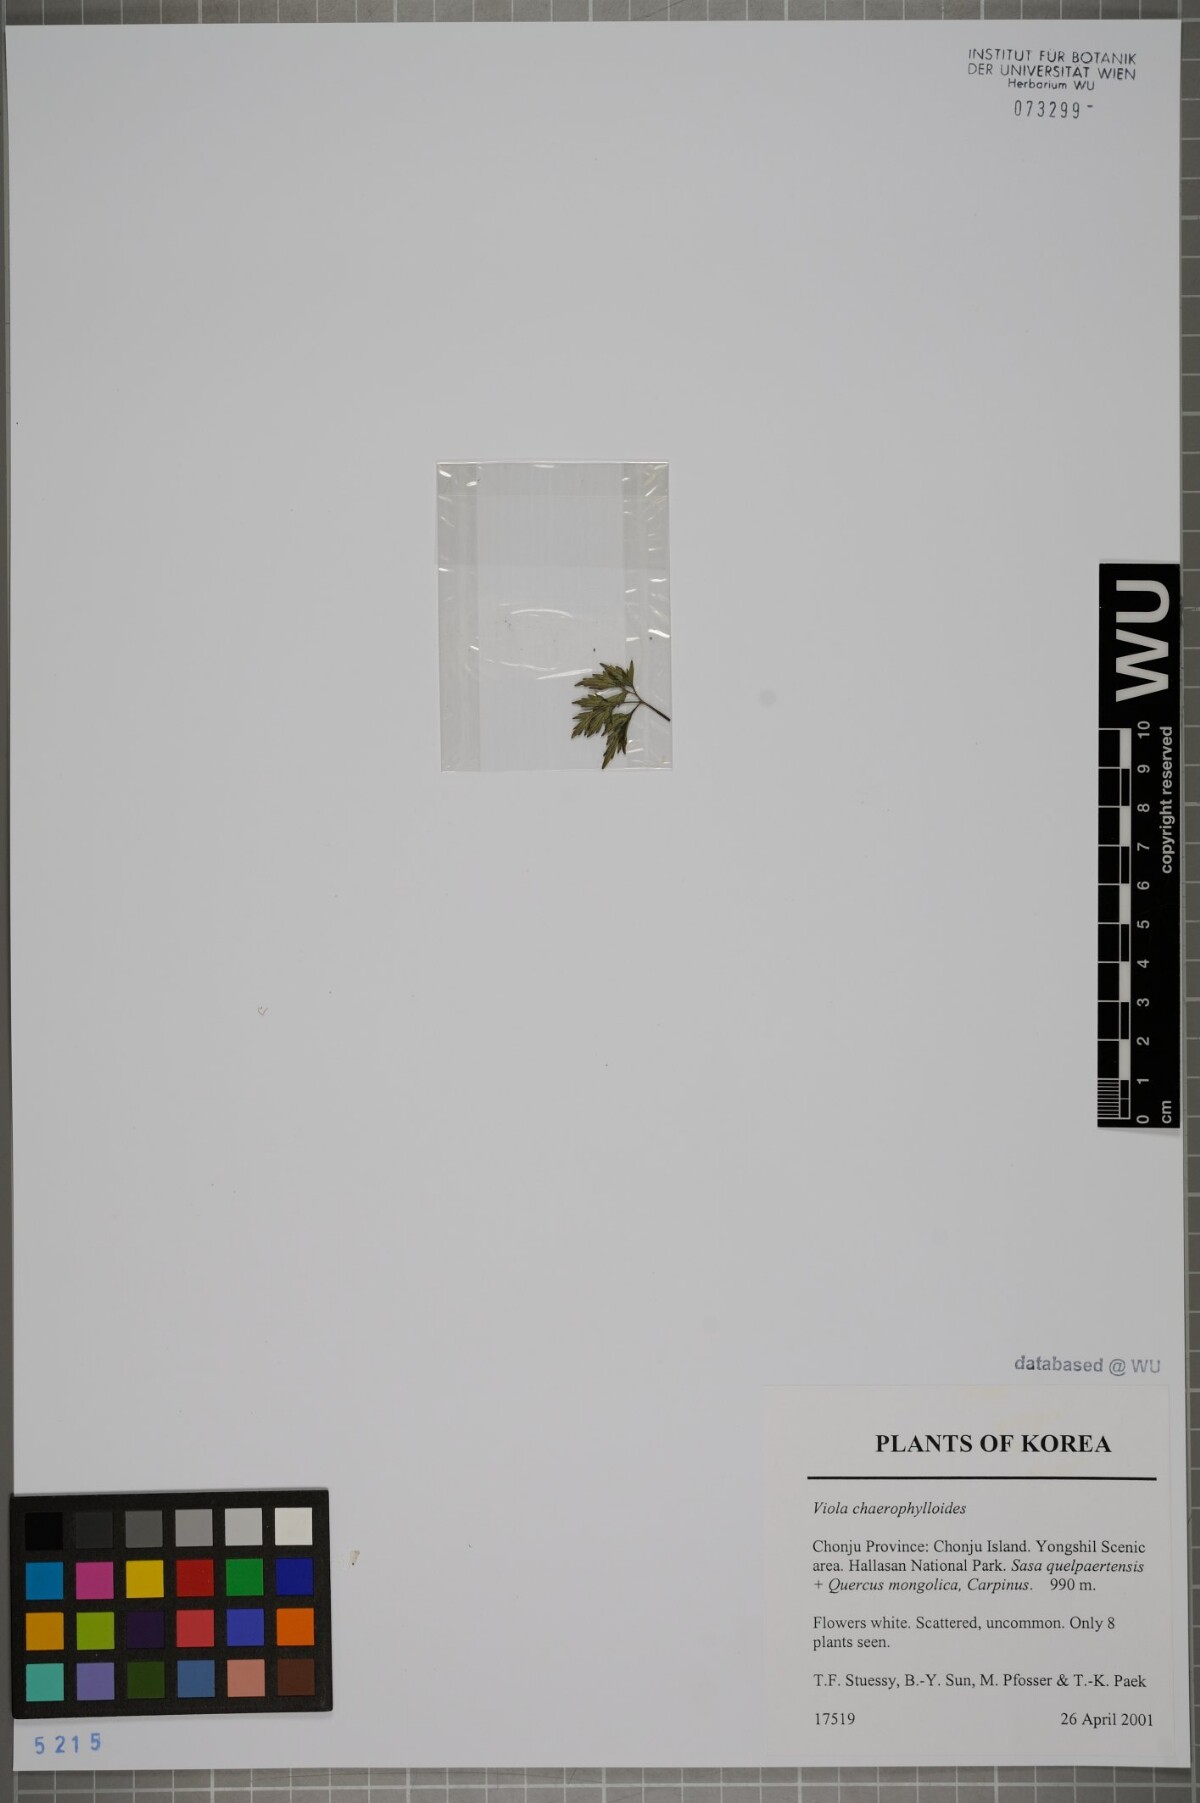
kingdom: Plantae
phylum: Tracheophyta
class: Magnoliopsida
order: Malpighiales
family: Violaceae
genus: Viola
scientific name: Viola albida
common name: Korean violet
